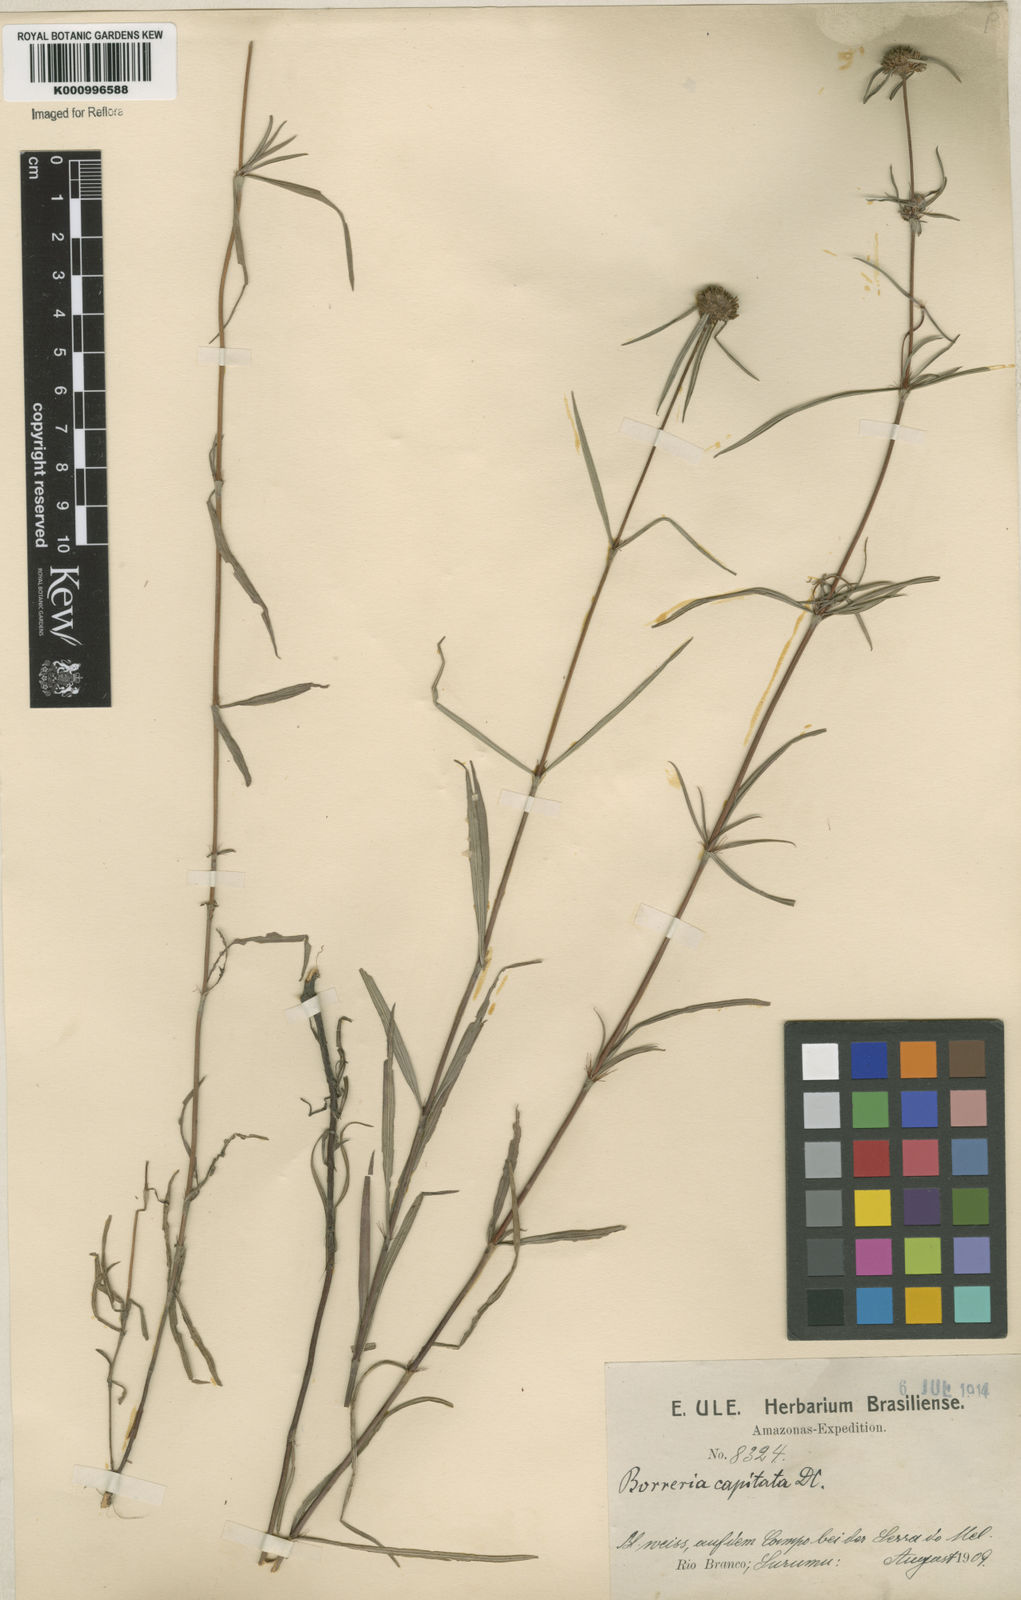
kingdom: Plantae
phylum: Tracheophyta
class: Magnoliopsida
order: Gentianales
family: Rubiaceae
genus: Spermacoce
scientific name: Spermacoce capitata
